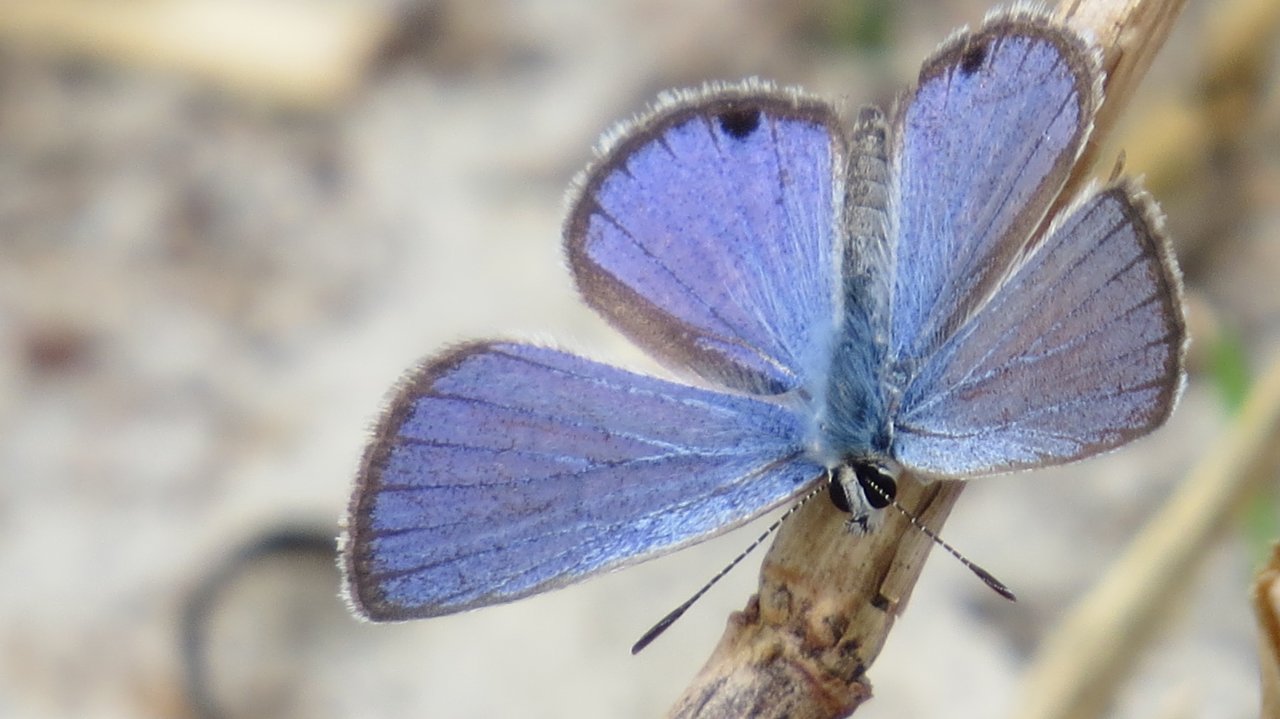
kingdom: Animalia
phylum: Arthropoda
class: Insecta
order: Lepidoptera
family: Lycaenidae
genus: Hemiargus
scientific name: Hemiargus ceraunus
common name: Ceraunus Blue
